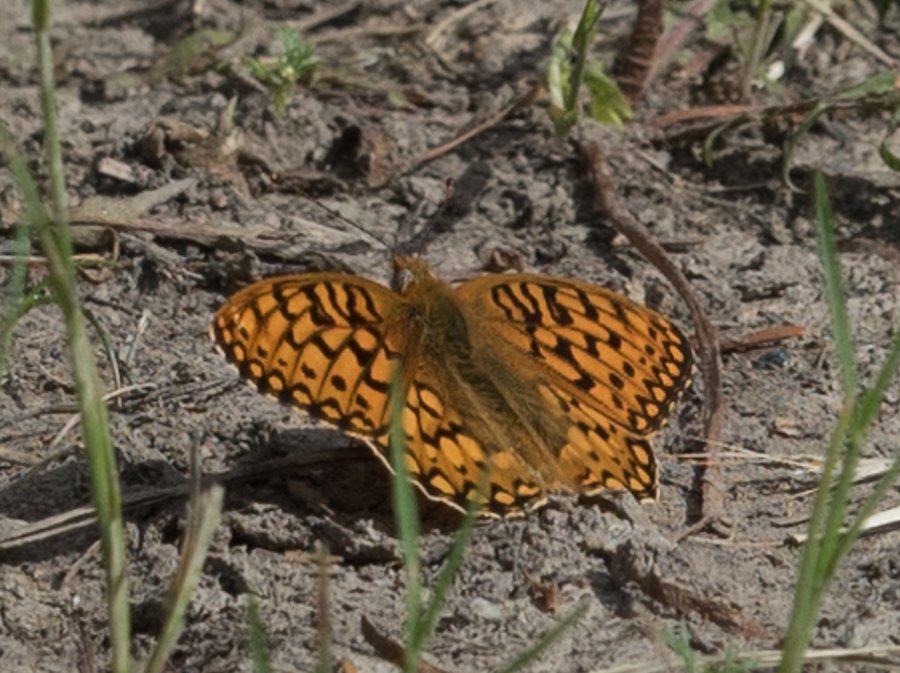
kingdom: Animalia
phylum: Arthropoda
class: Insecta
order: Lepidoptera
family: Nymphalidae
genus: Speyeria
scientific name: Speyeria callippe
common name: Callippe Fritillary
